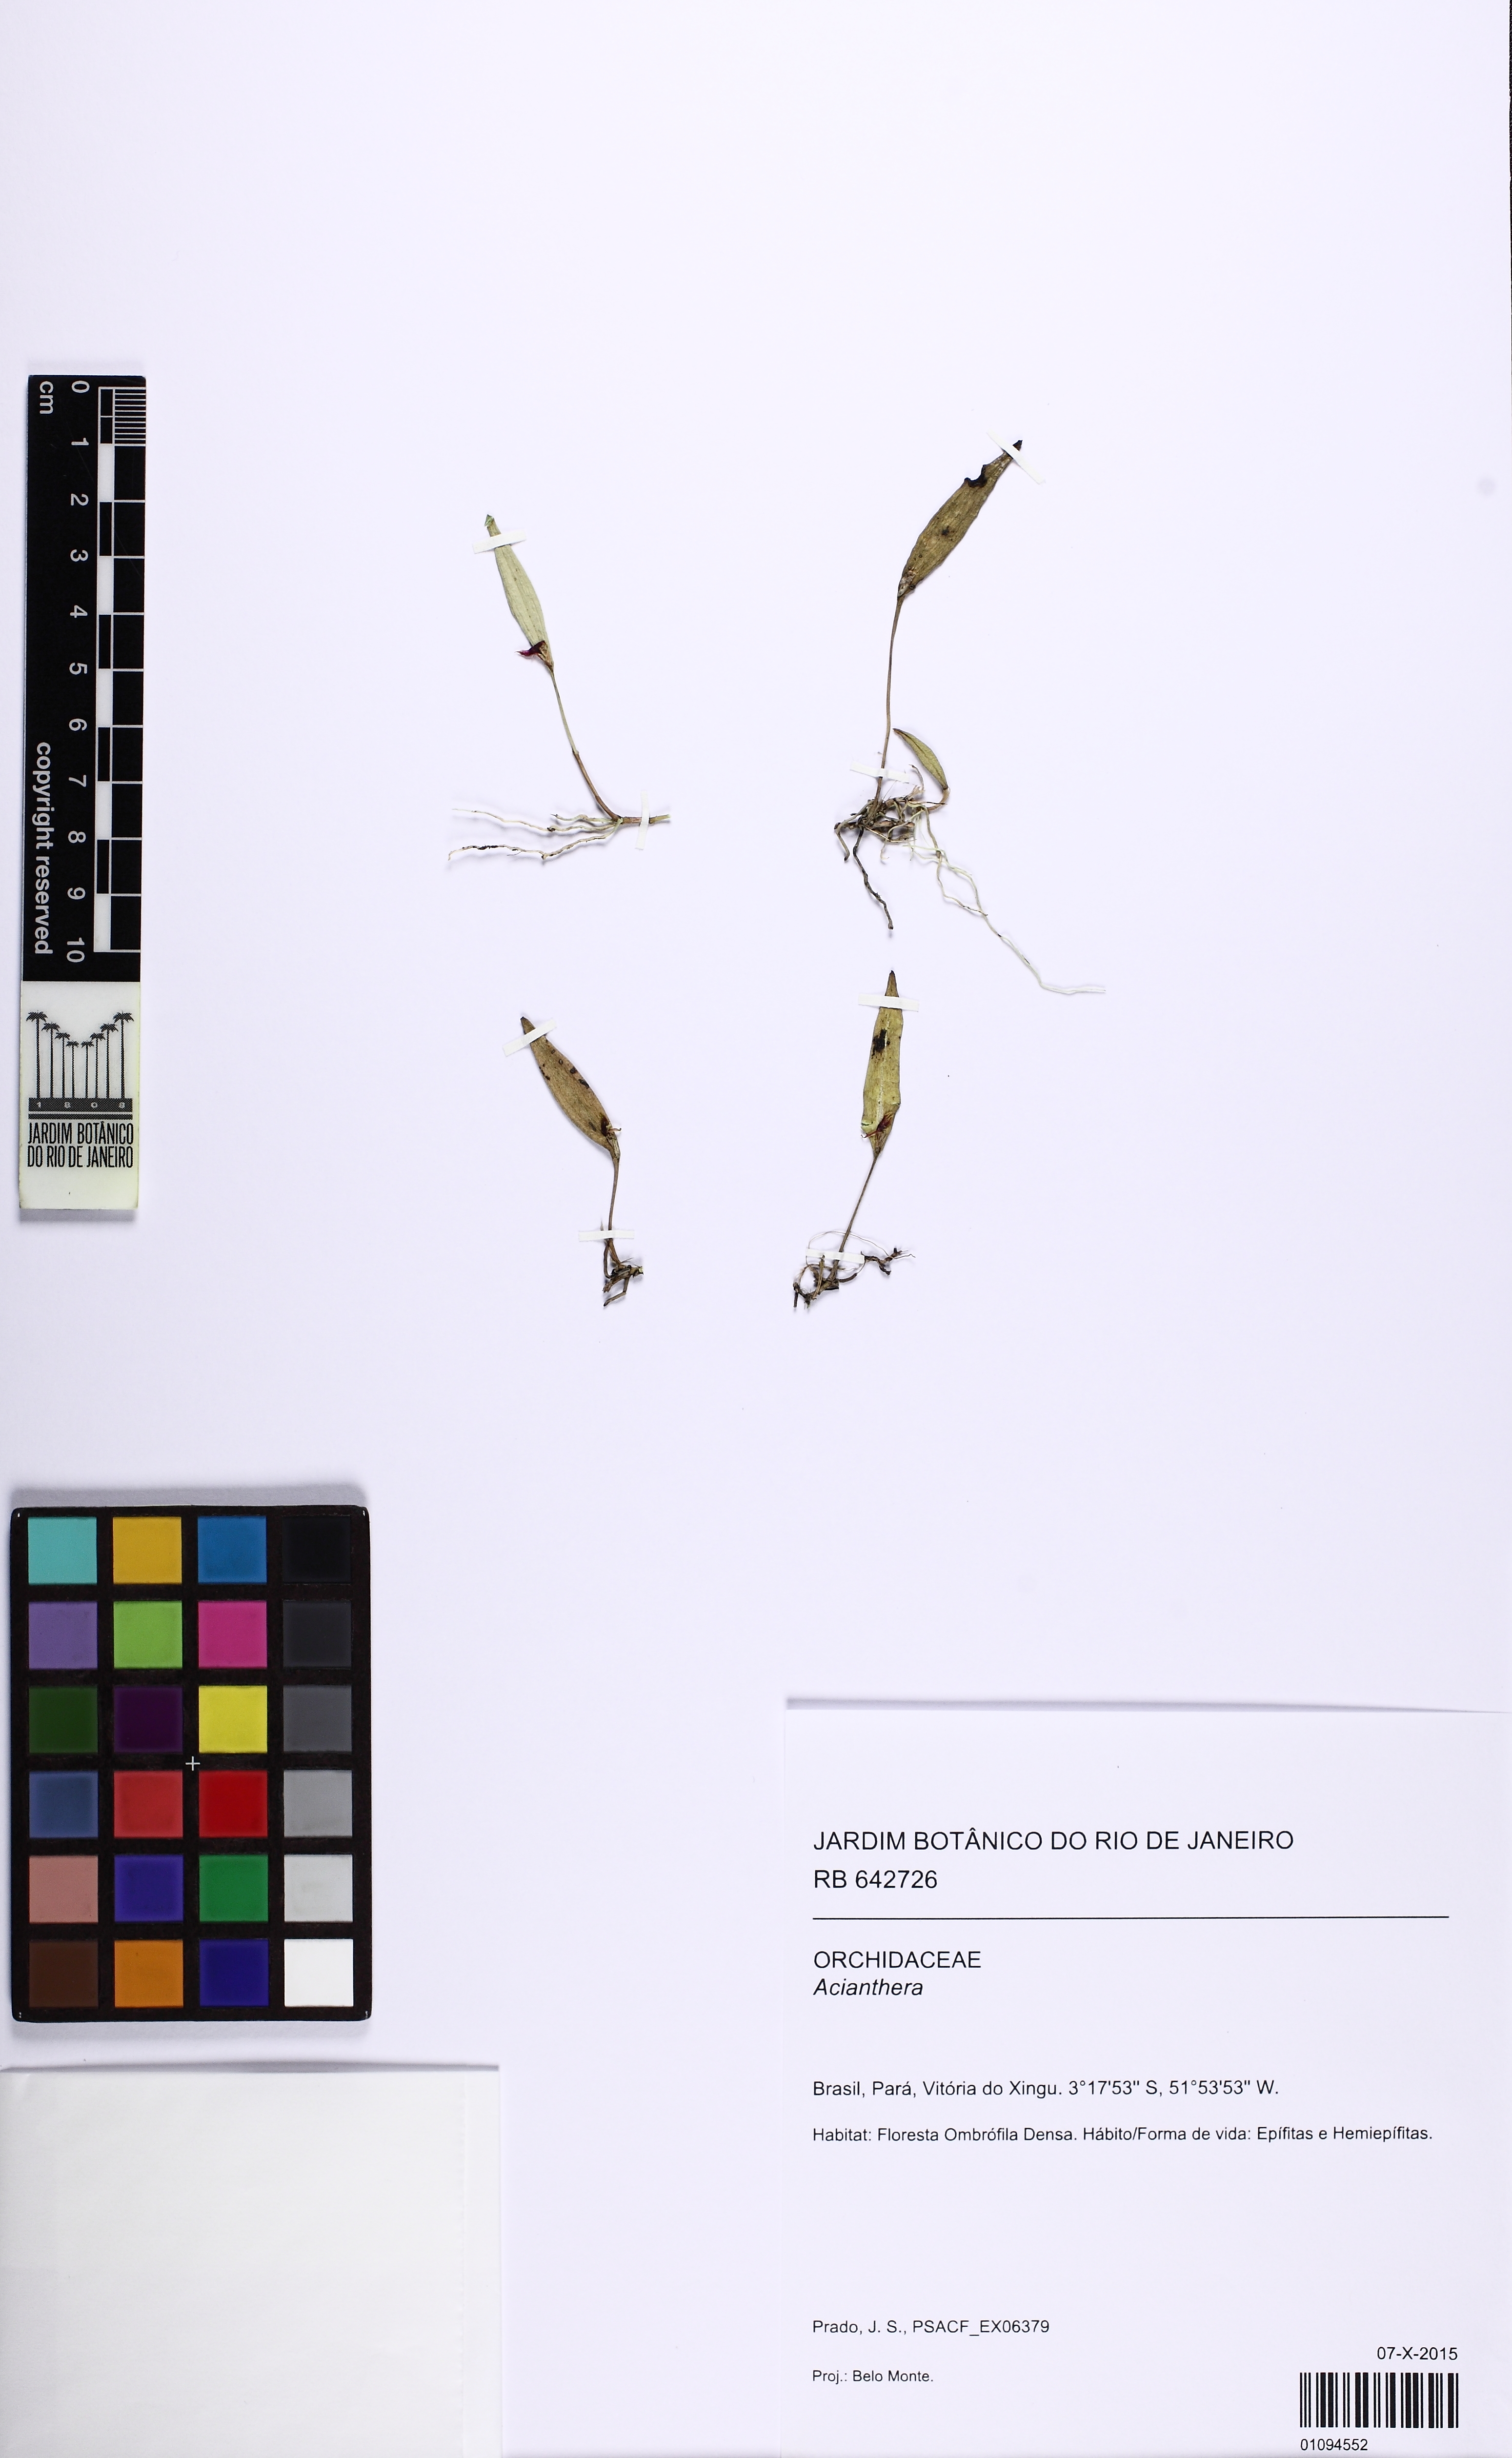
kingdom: Plantae
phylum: Tracheophyta
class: Liliopsida
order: Asparagales
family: Orchidaceae
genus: Acianthera
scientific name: Acianthera
